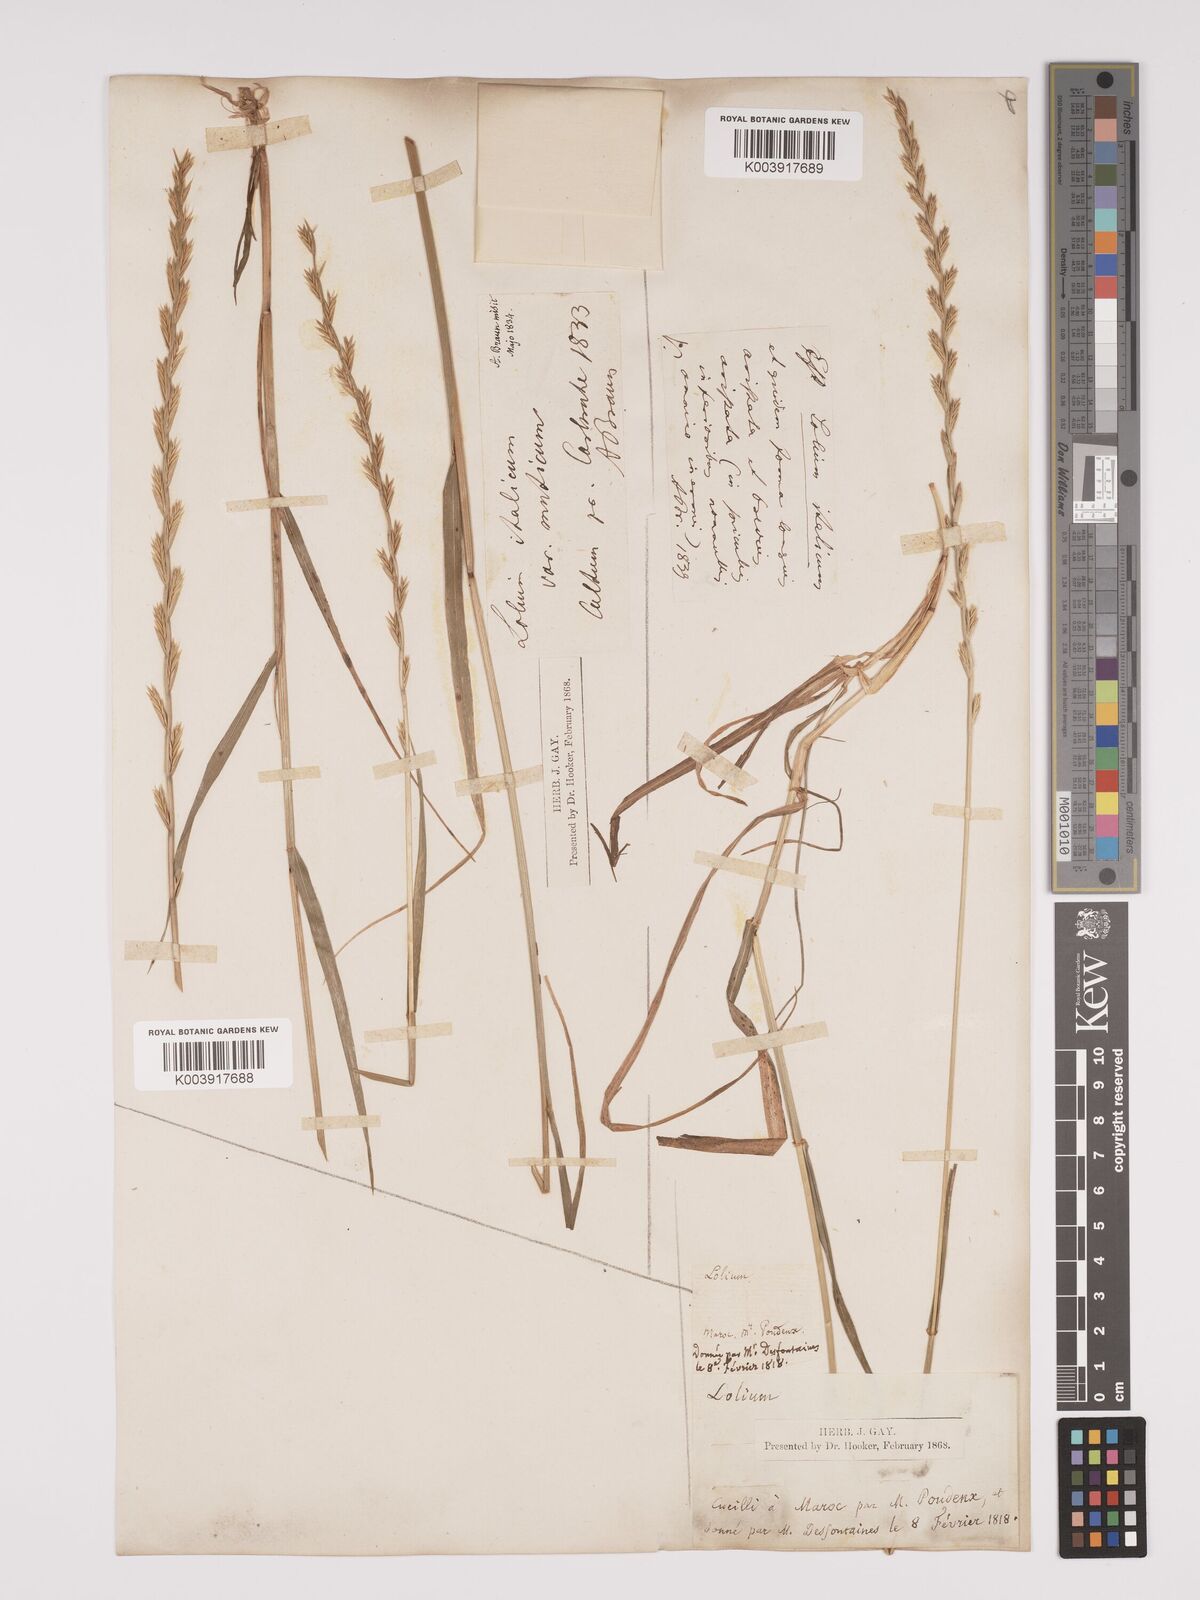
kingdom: Plantae
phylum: Tracheophyta
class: Liliopsida
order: Poales
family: Poaceae
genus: Lolium
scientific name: Lolium rigidum
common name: Wimmera ryegrass
